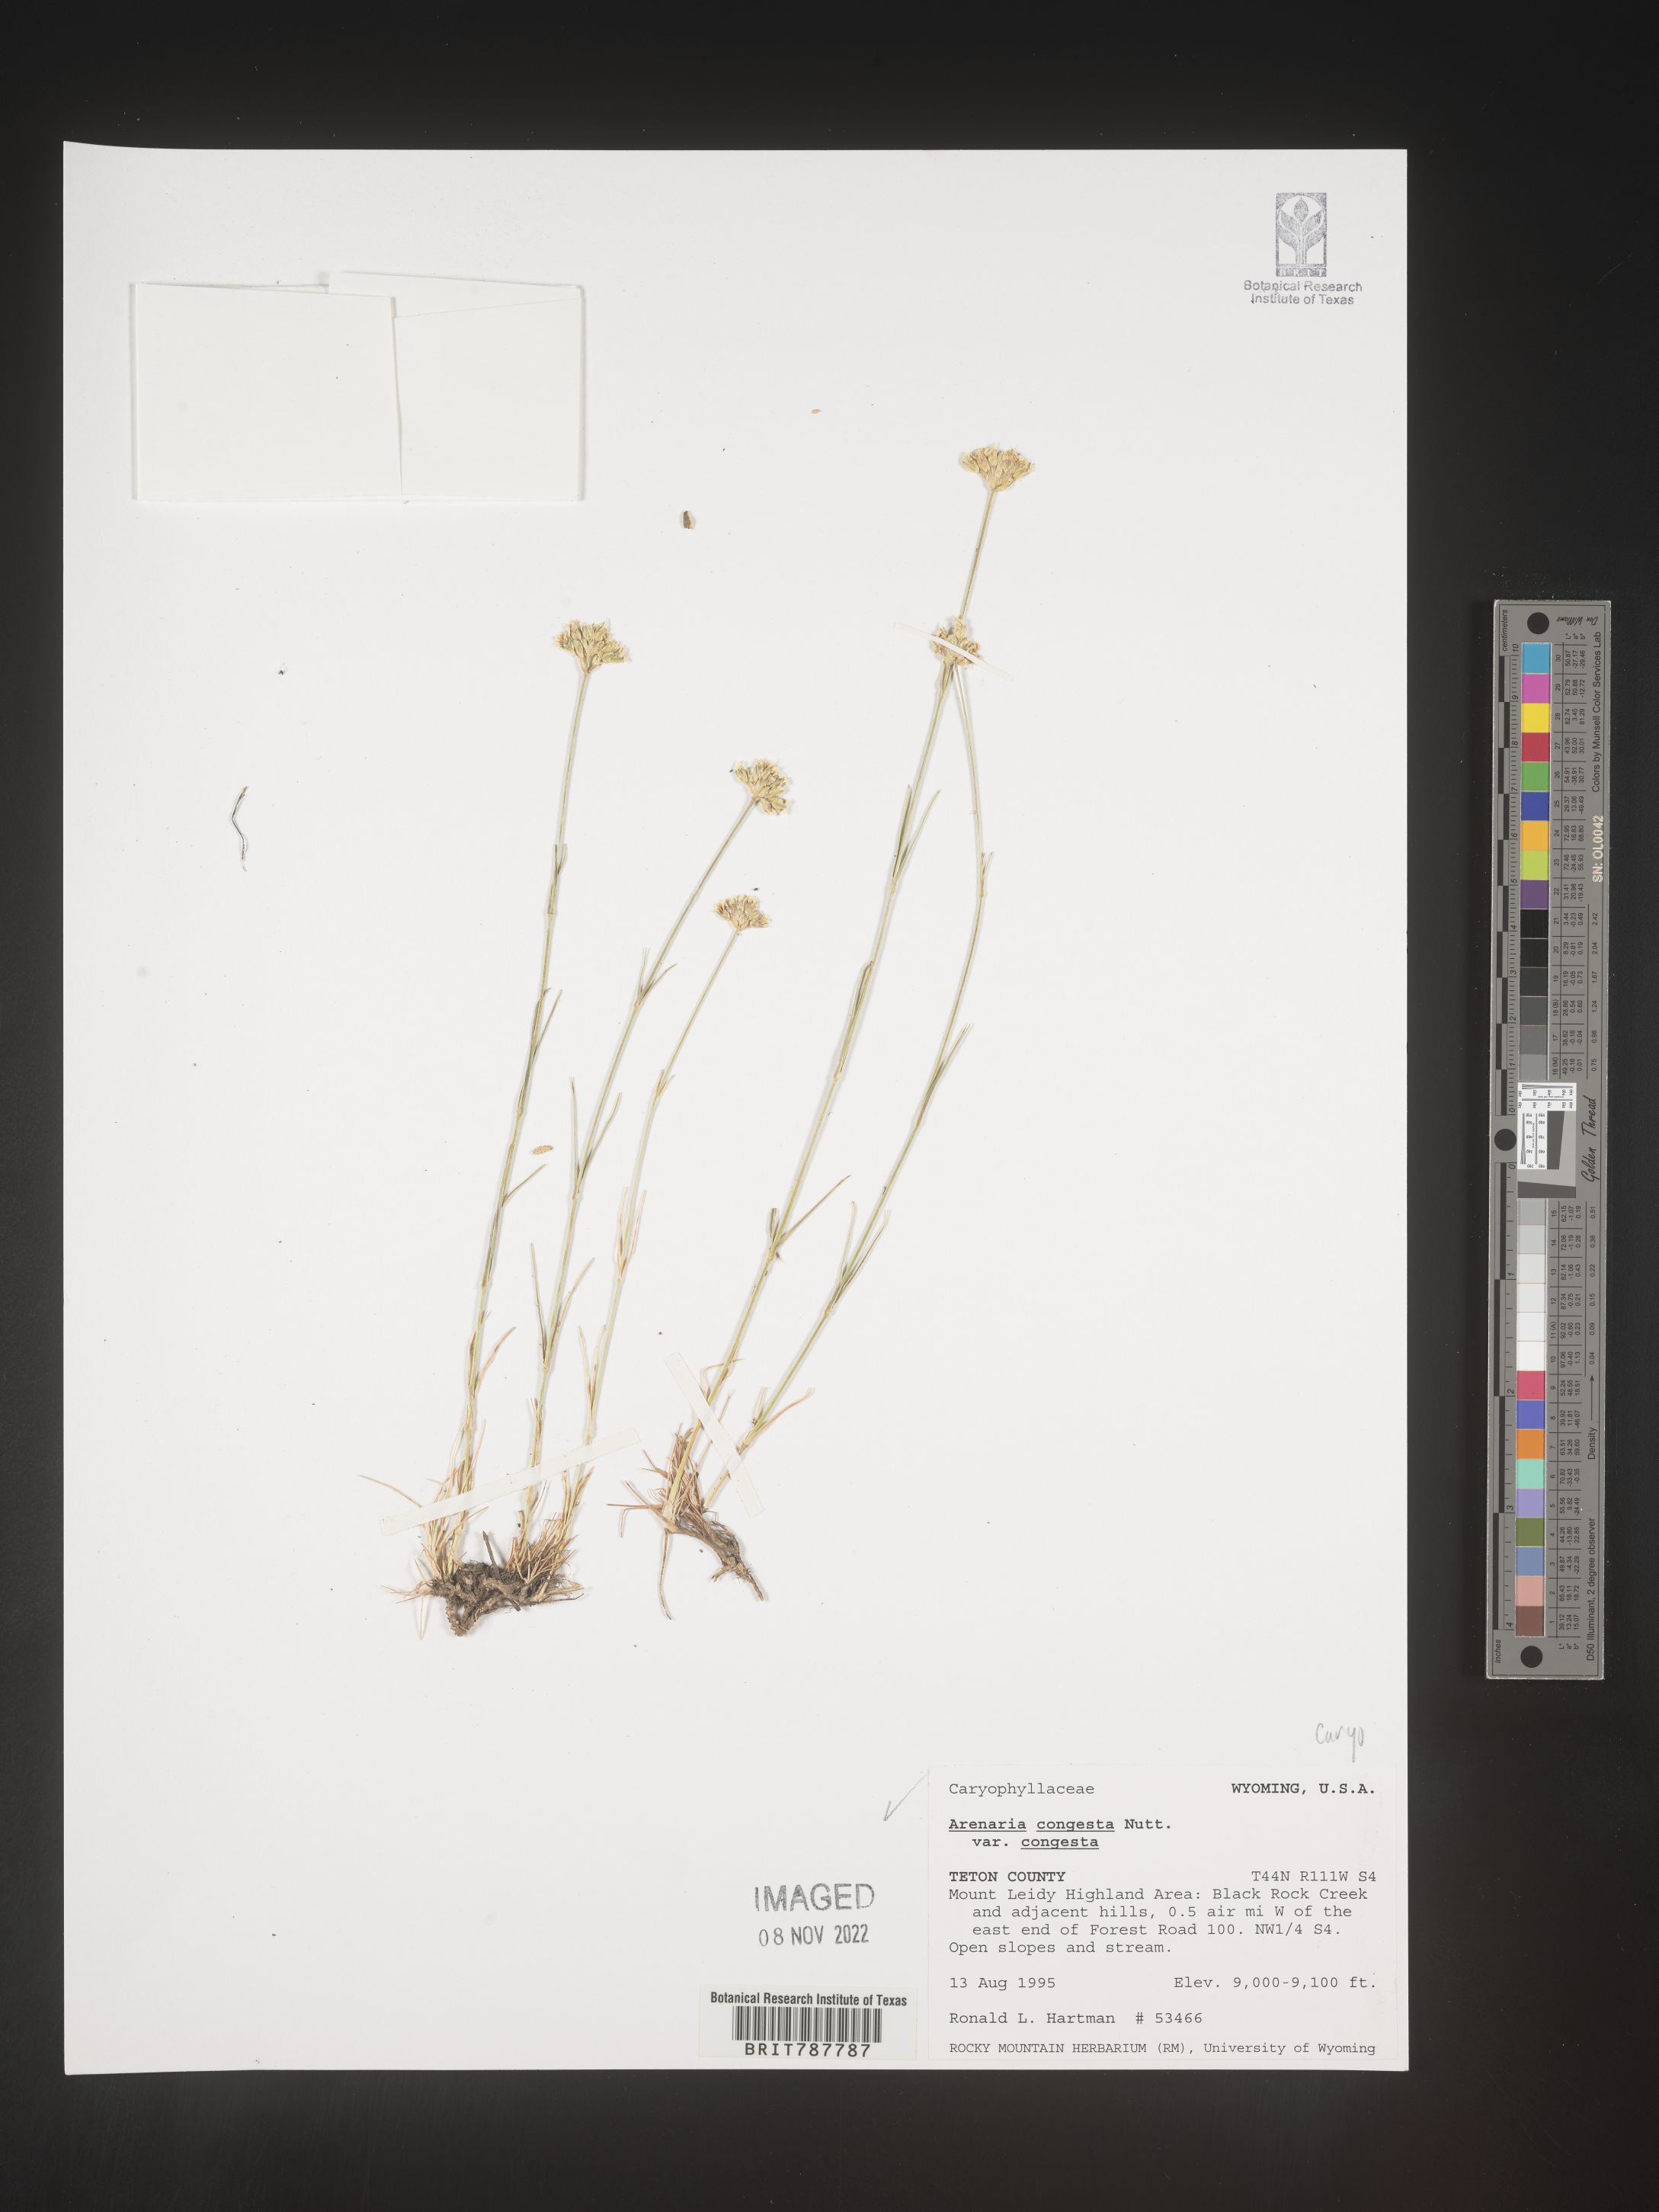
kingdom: Plantae
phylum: Tracheophyta
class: Magnoliopsida
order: Caryophyllales
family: Caryophyllaceae
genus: Eremogone
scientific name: Eremogone congesta
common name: Ballhead sandwort
